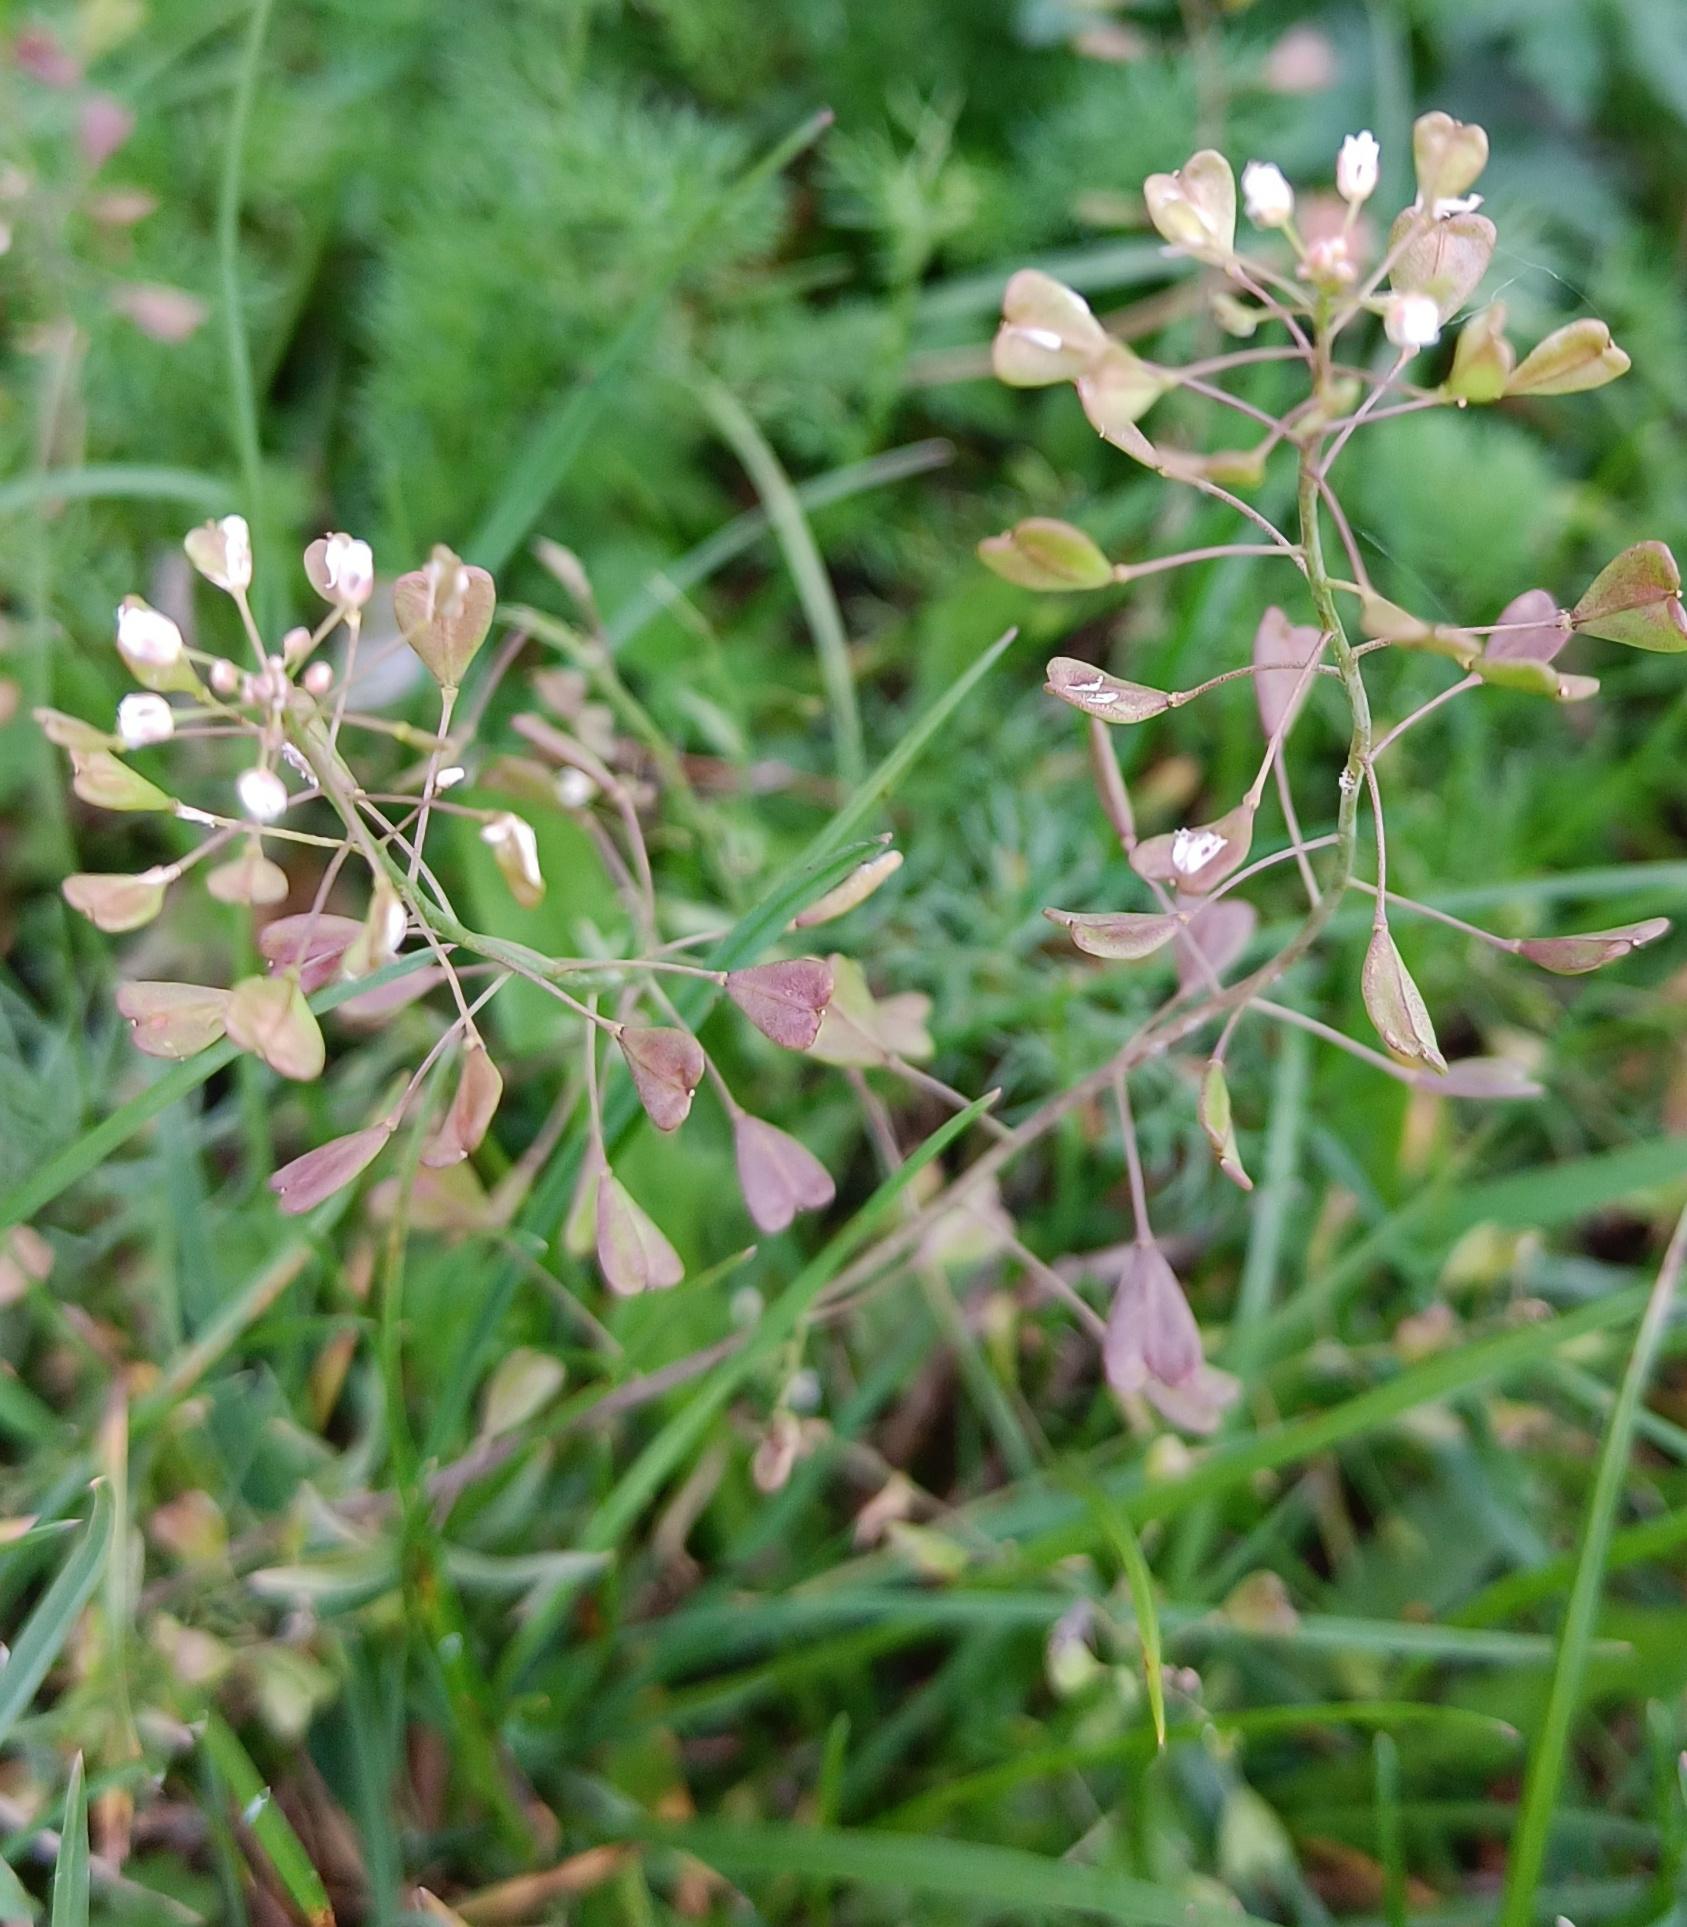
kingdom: Plantae
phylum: Tracheophyta
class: Magnoliopsida
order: Brassicales
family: Brassicaceae
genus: Capsella
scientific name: Capsella bursa-pastoris
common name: Hyrdetaske
